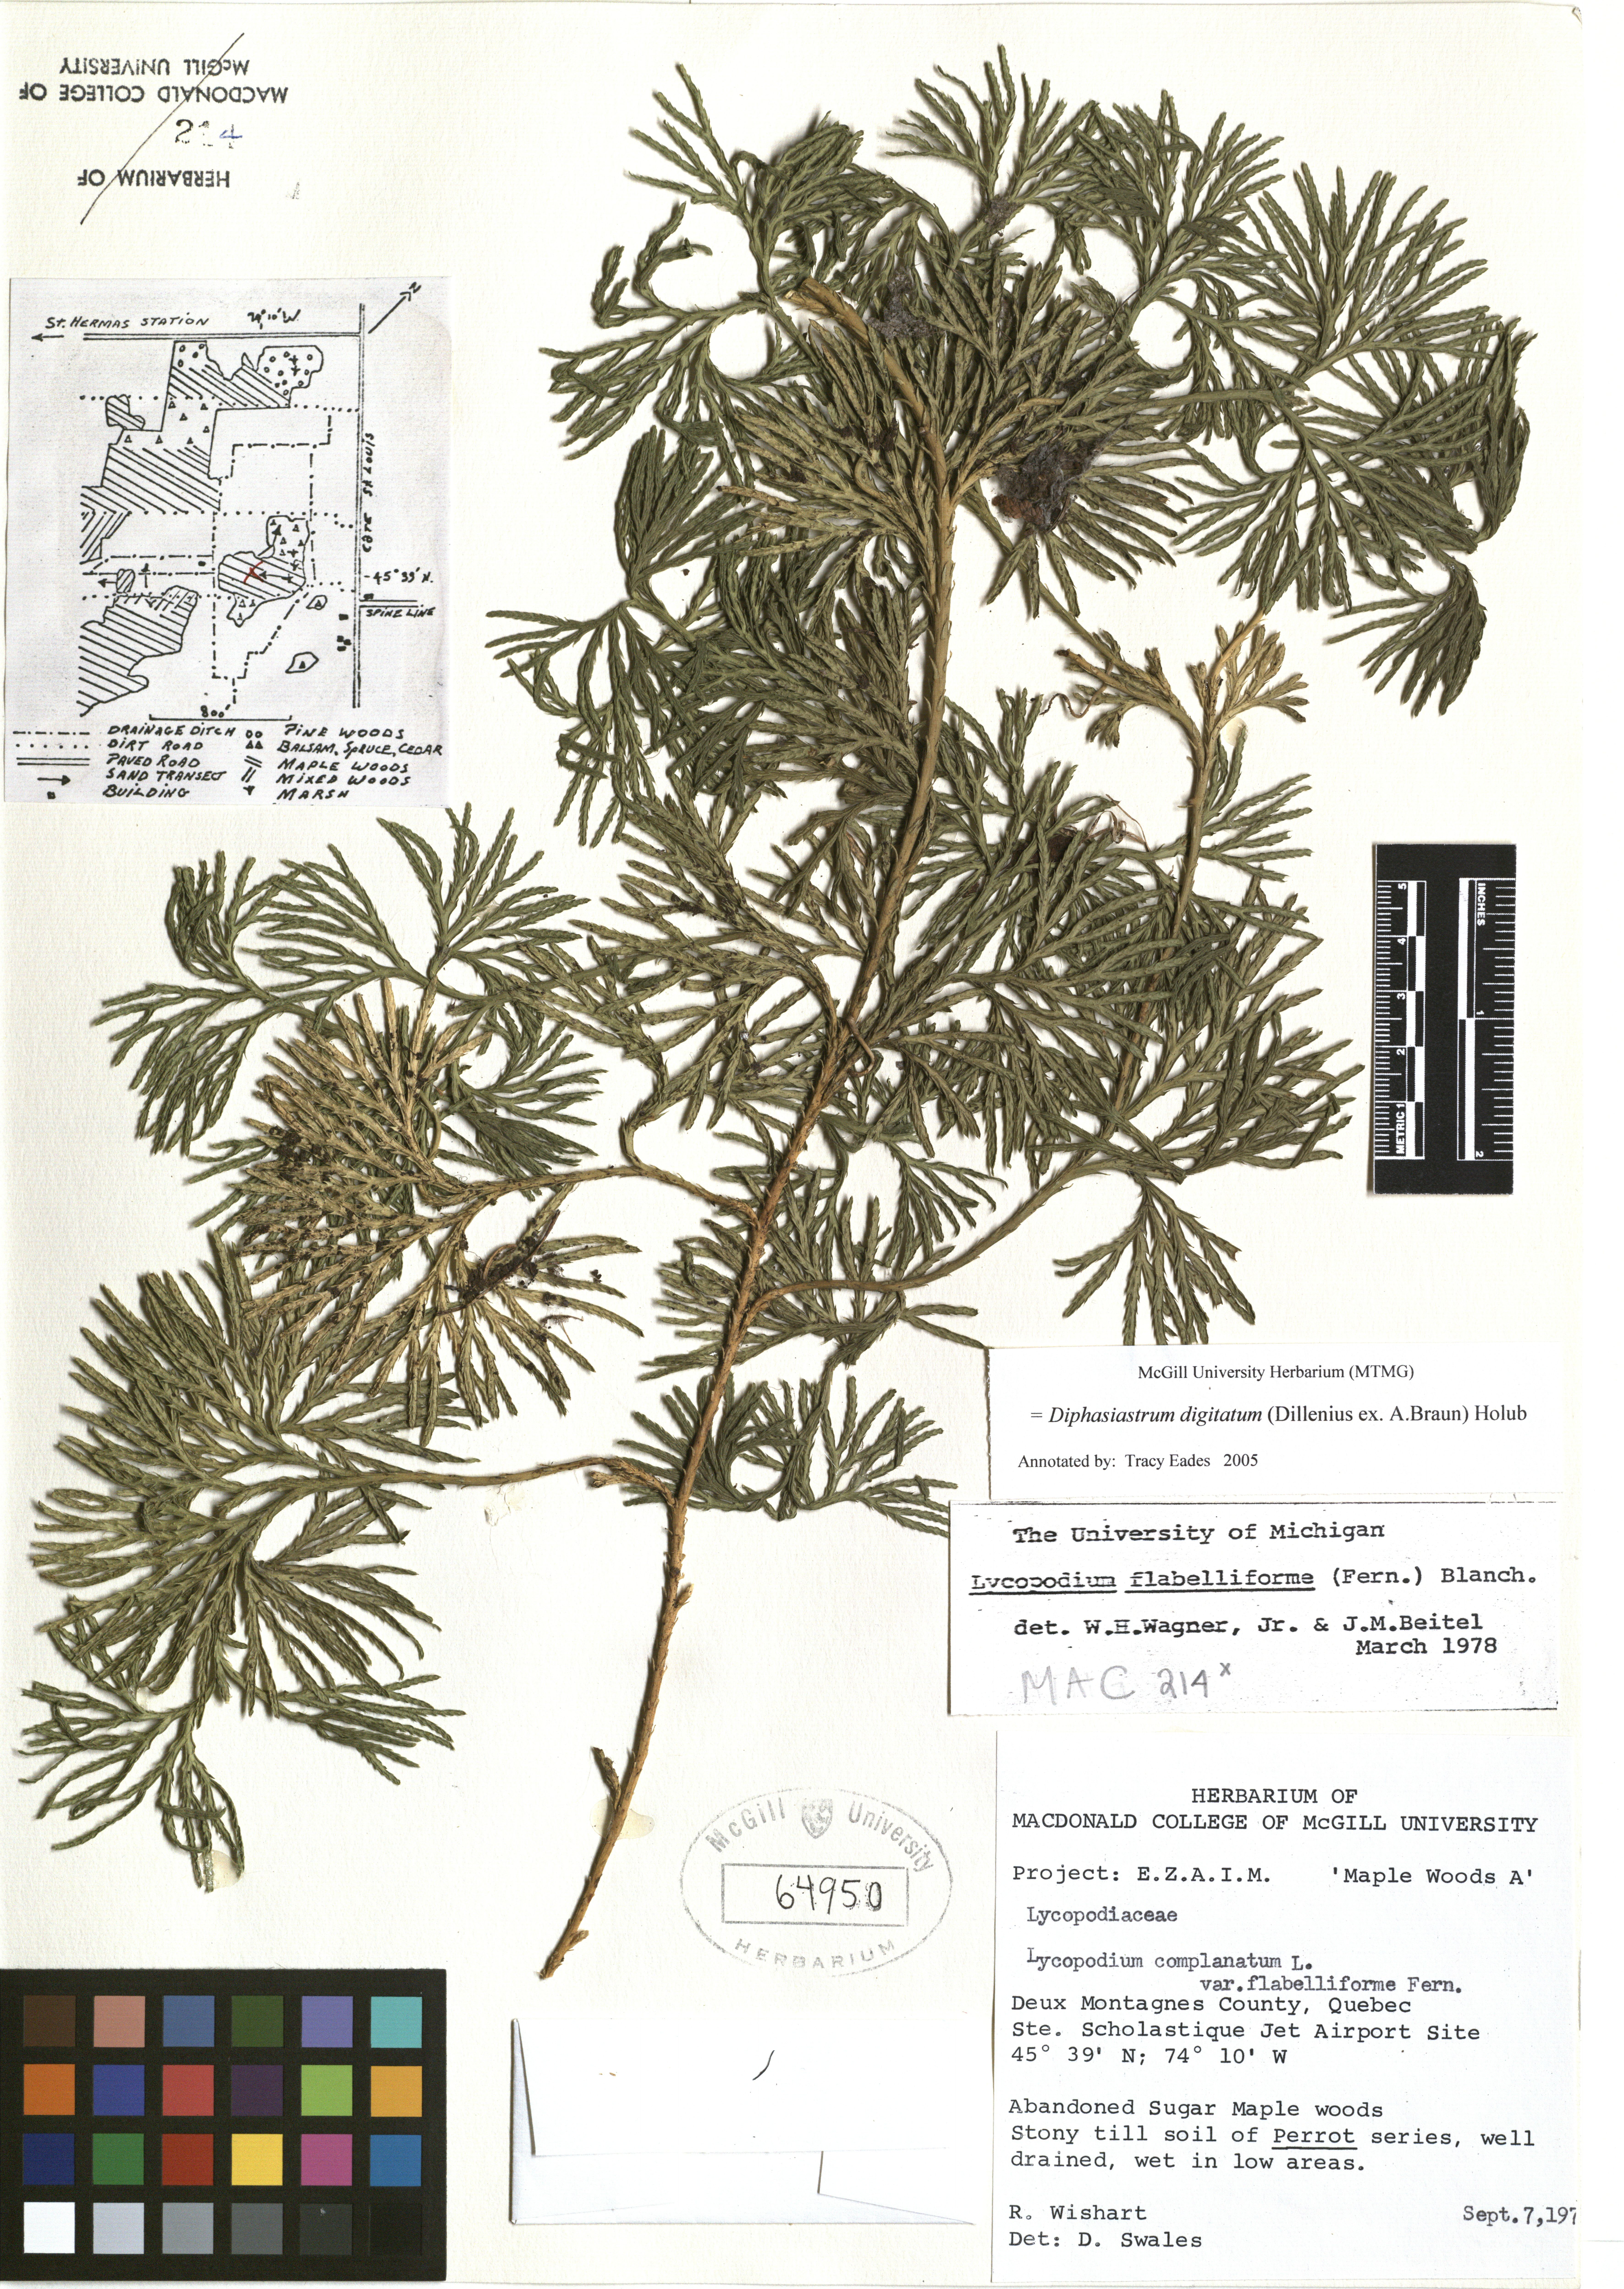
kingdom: Plantae
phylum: Tracheophyta
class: Lycopodiopsida
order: Lycopodiales
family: Lycopodiaceae
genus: Diphasiastrum
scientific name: Diphasiastrum digitatum
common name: Southern running-pine
